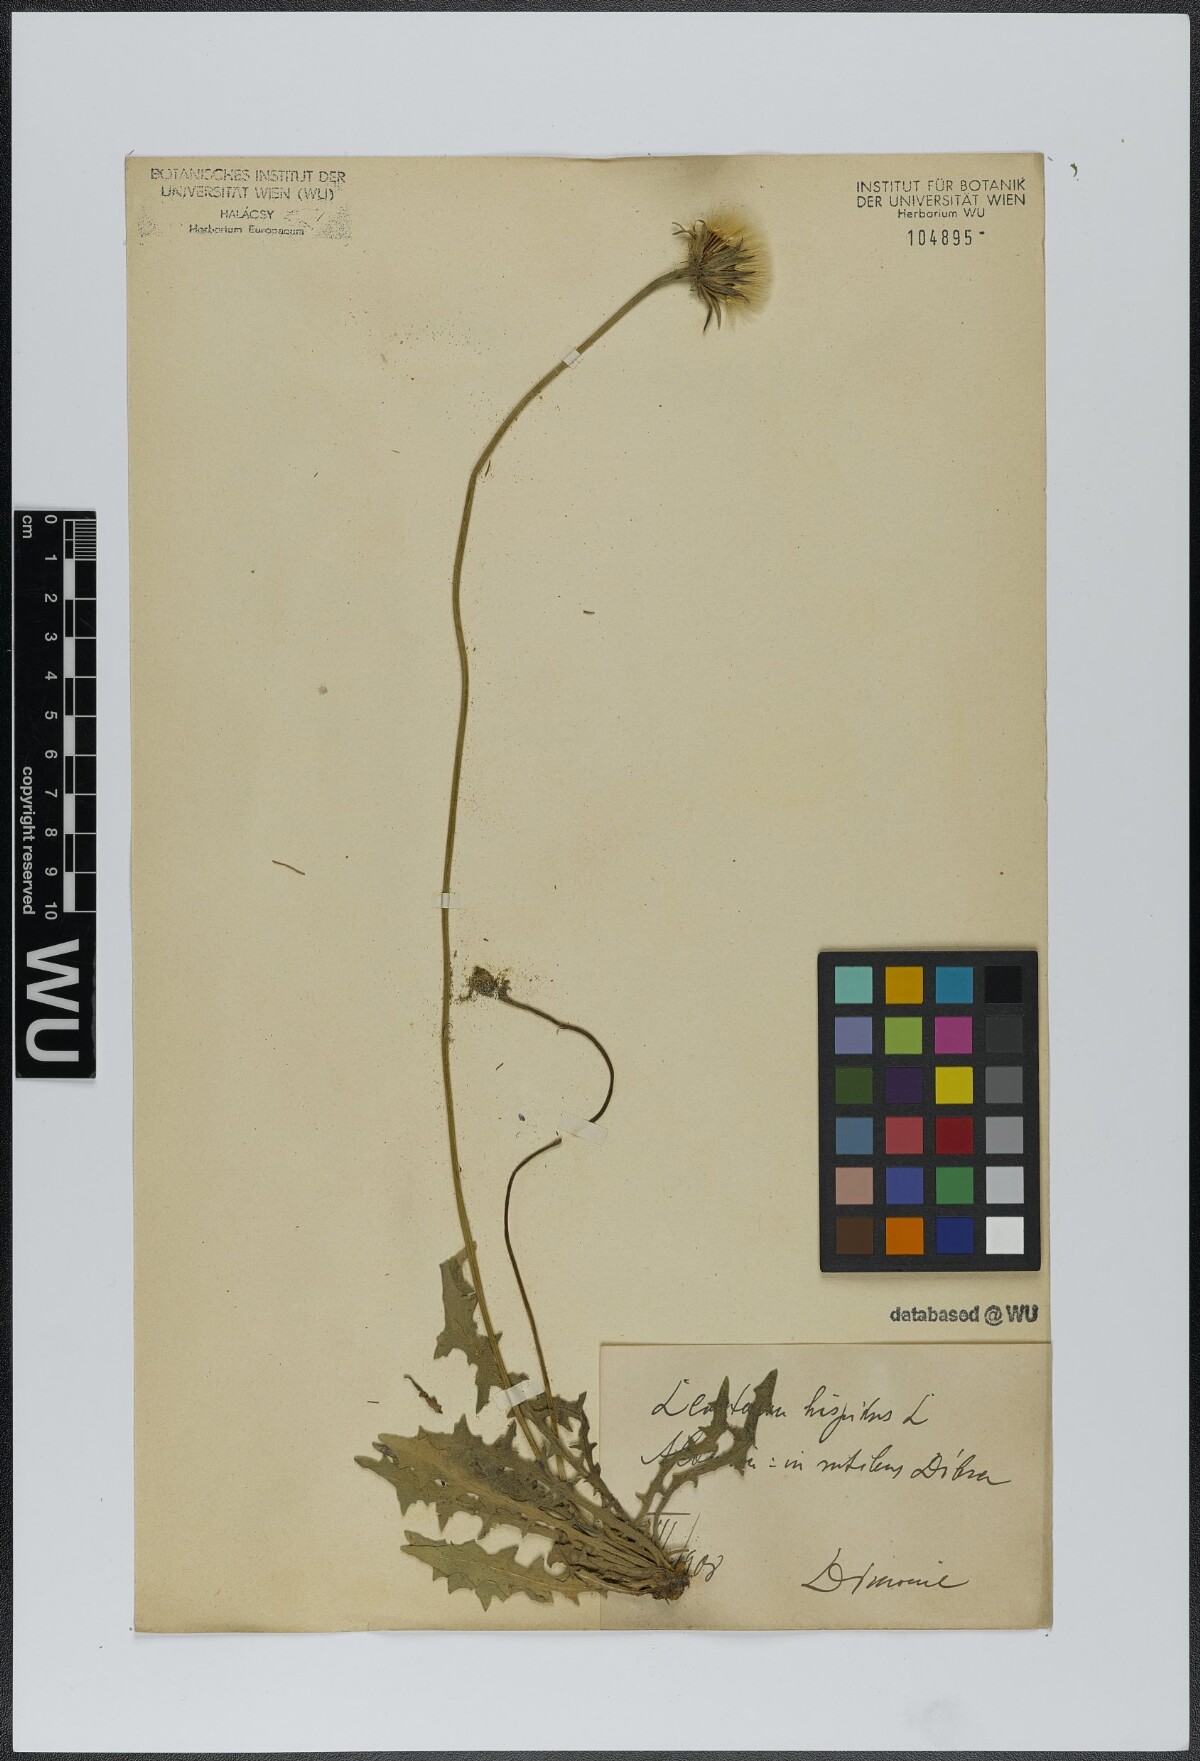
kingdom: Plantae
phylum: Tracheophyta
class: Magnoliopsida
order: Asterales
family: Asteraceae
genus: Leontodon
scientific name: Leontodon hispidus
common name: Rough hawkbit
